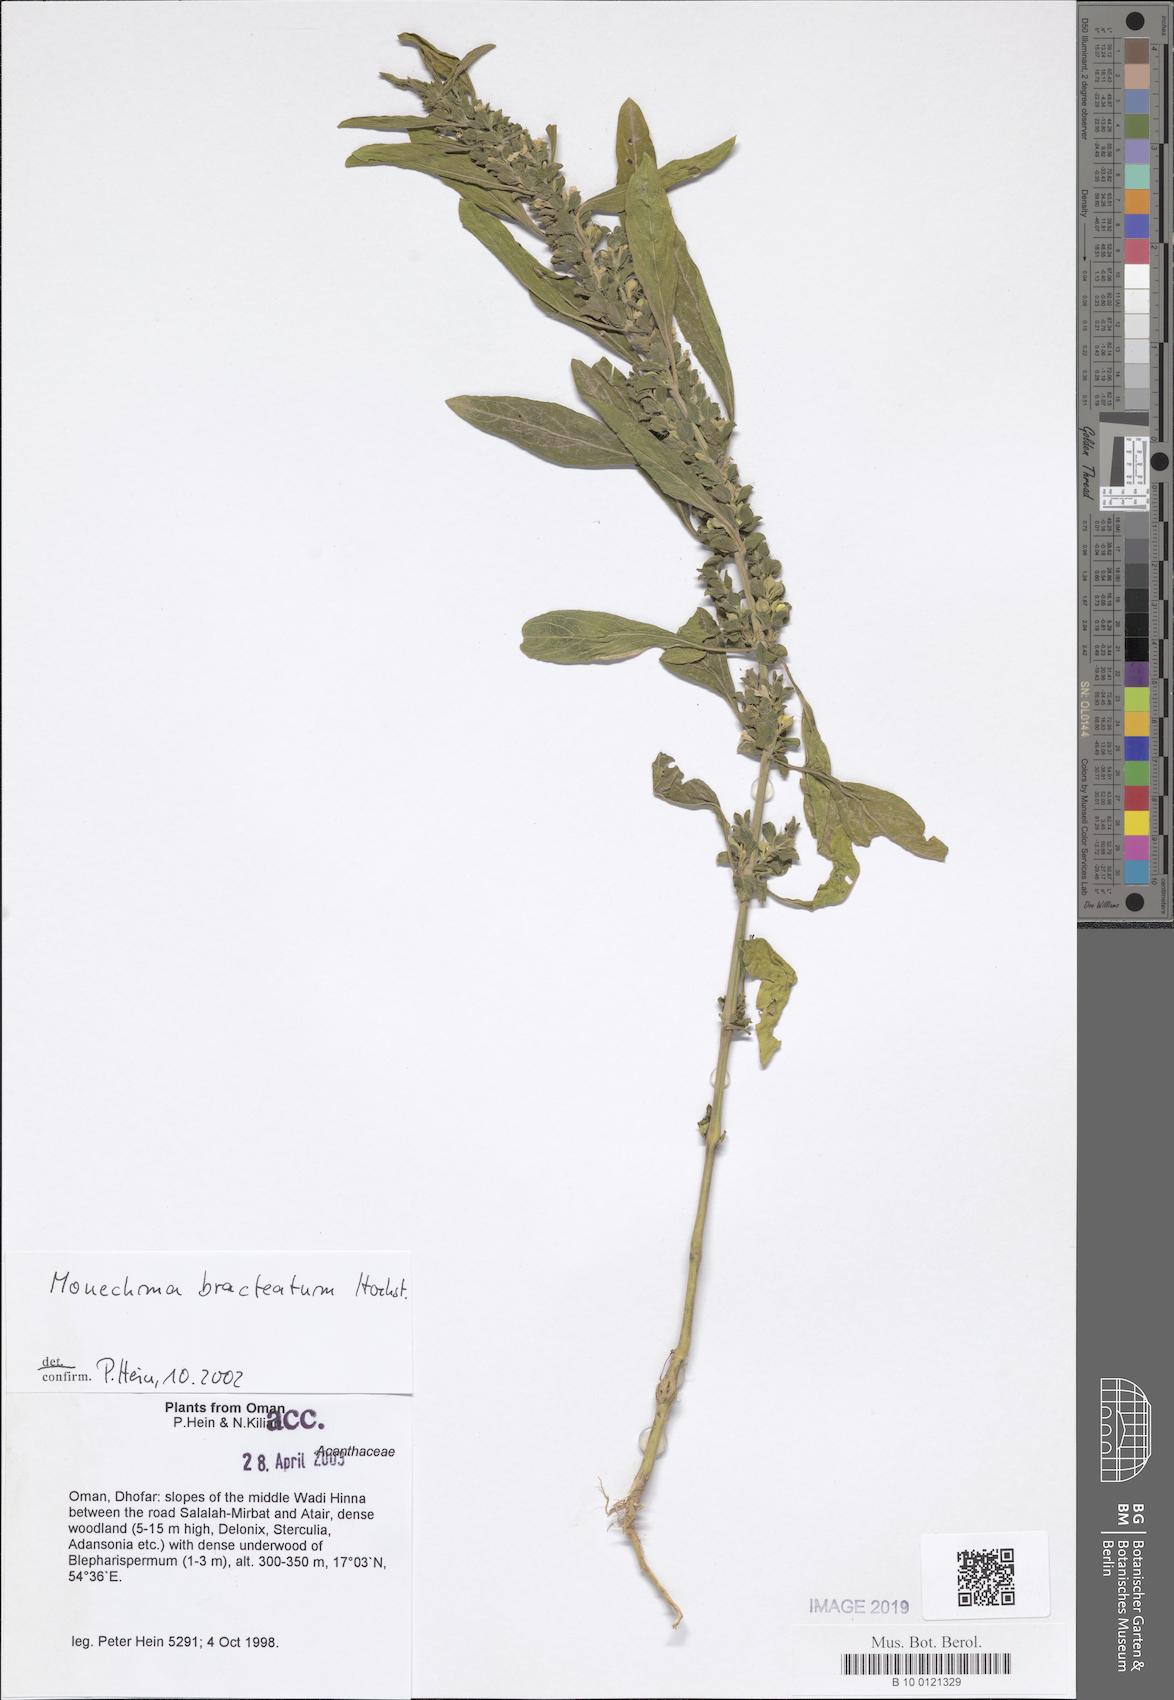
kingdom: Plantae
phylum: Tracheophyta
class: Magnoliopsida
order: Lamiales
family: Acanthaceae
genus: Monechma
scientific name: Monechma bracteatum
